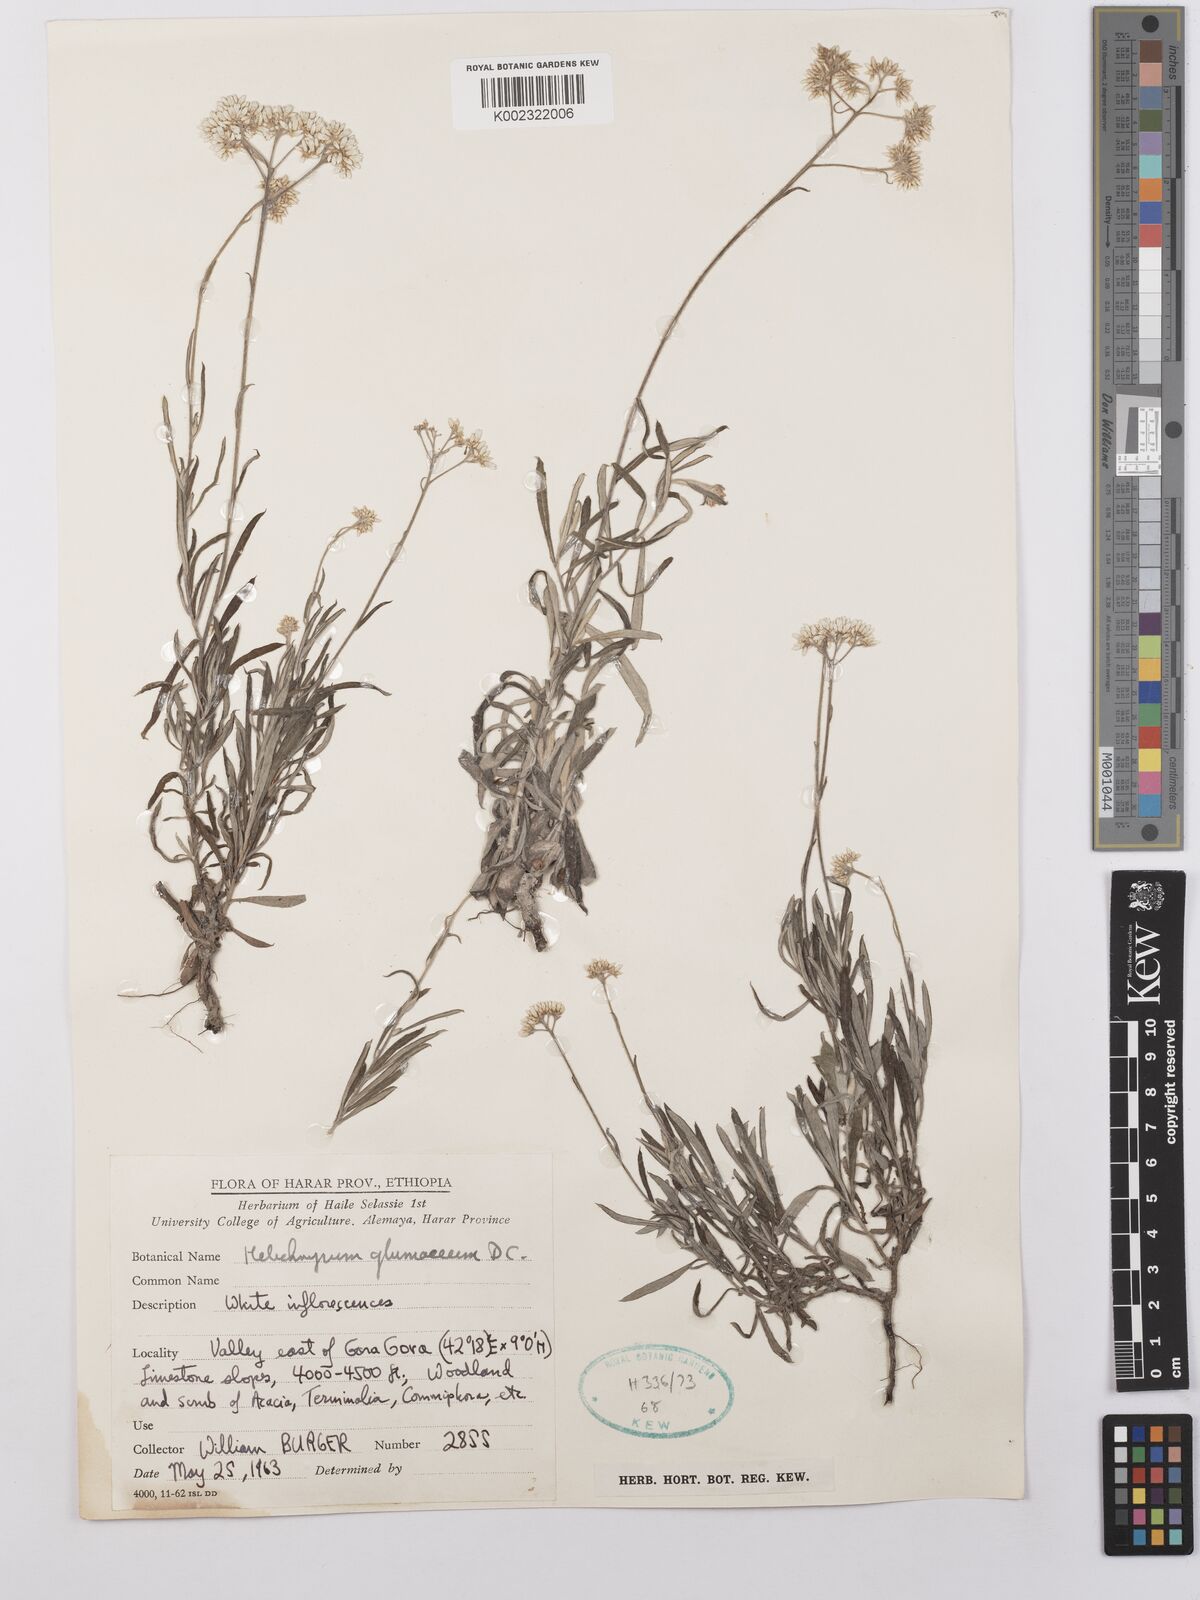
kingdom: Plantae
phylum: Tracheophyta
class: Magnoliopsida
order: Asterales
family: Asteraceae
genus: Helichrysum
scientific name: Helichrysum glumaceum
